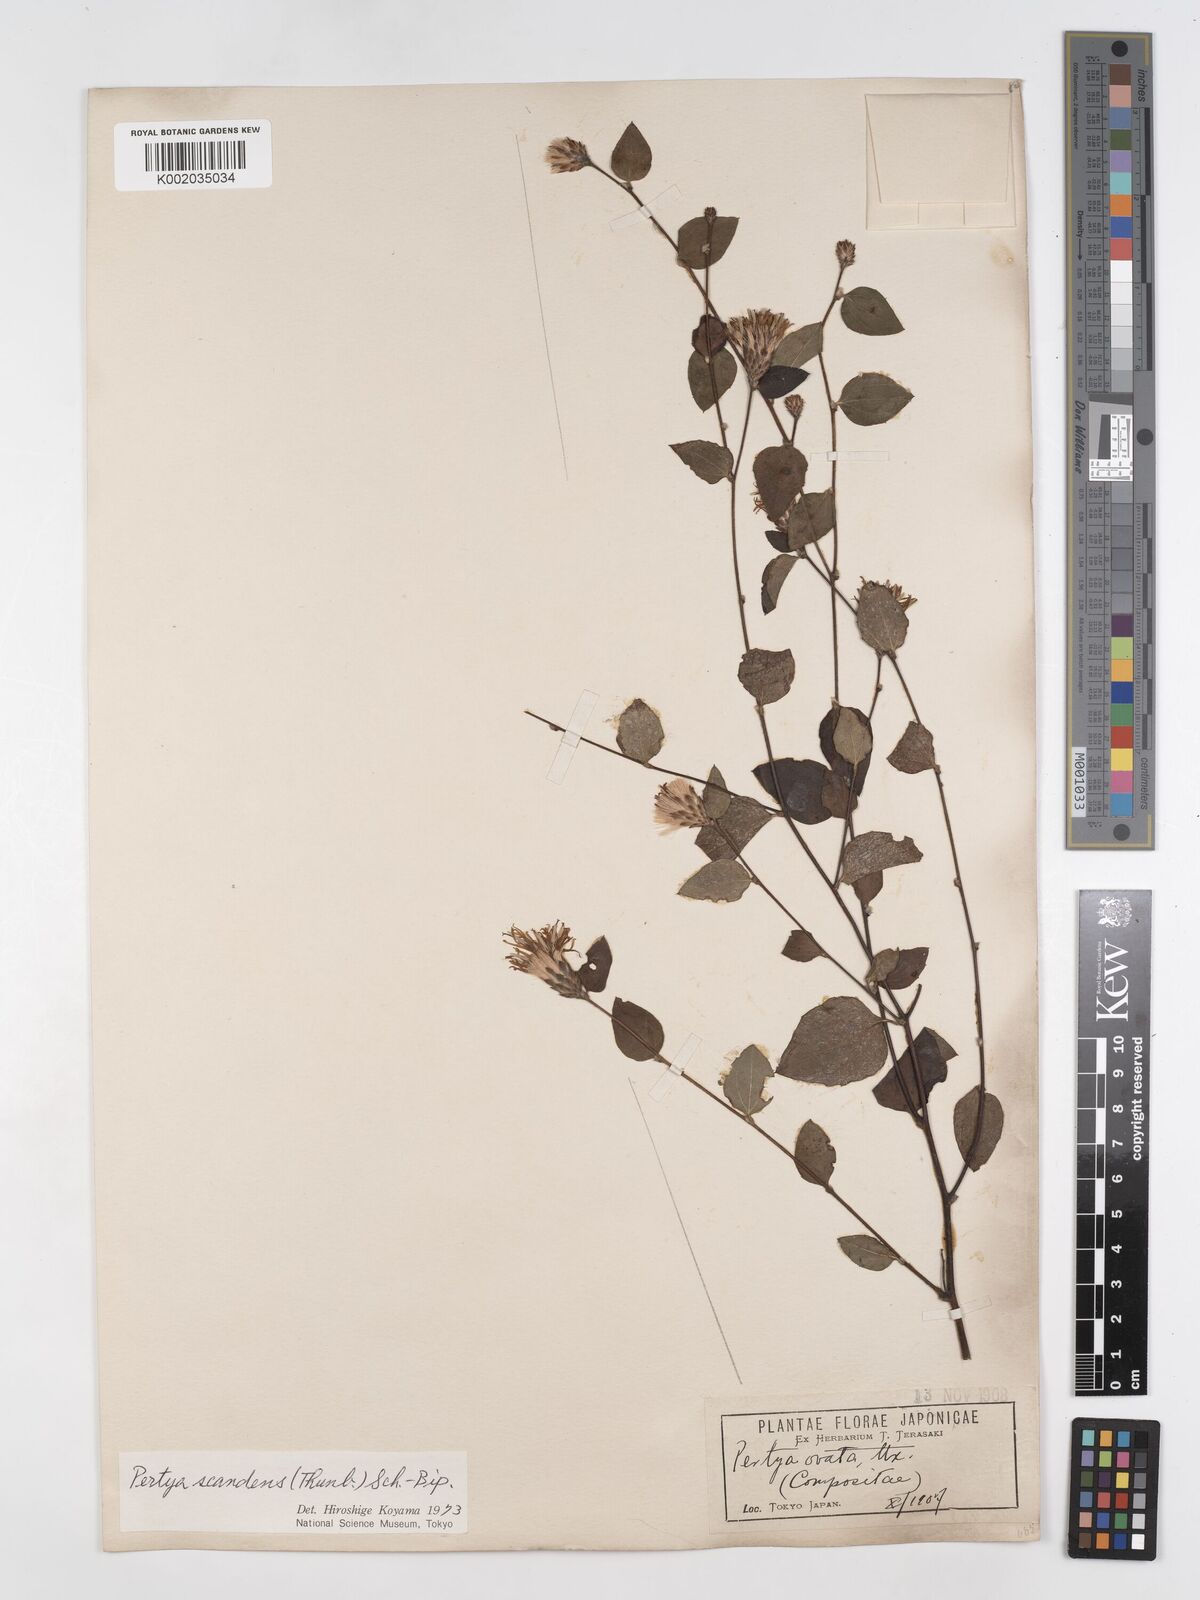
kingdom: Plantae
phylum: Tracheophyta
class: Magnoliopsida
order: Asterales
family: Asteraceae
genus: Pertya
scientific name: Pertya scandens
